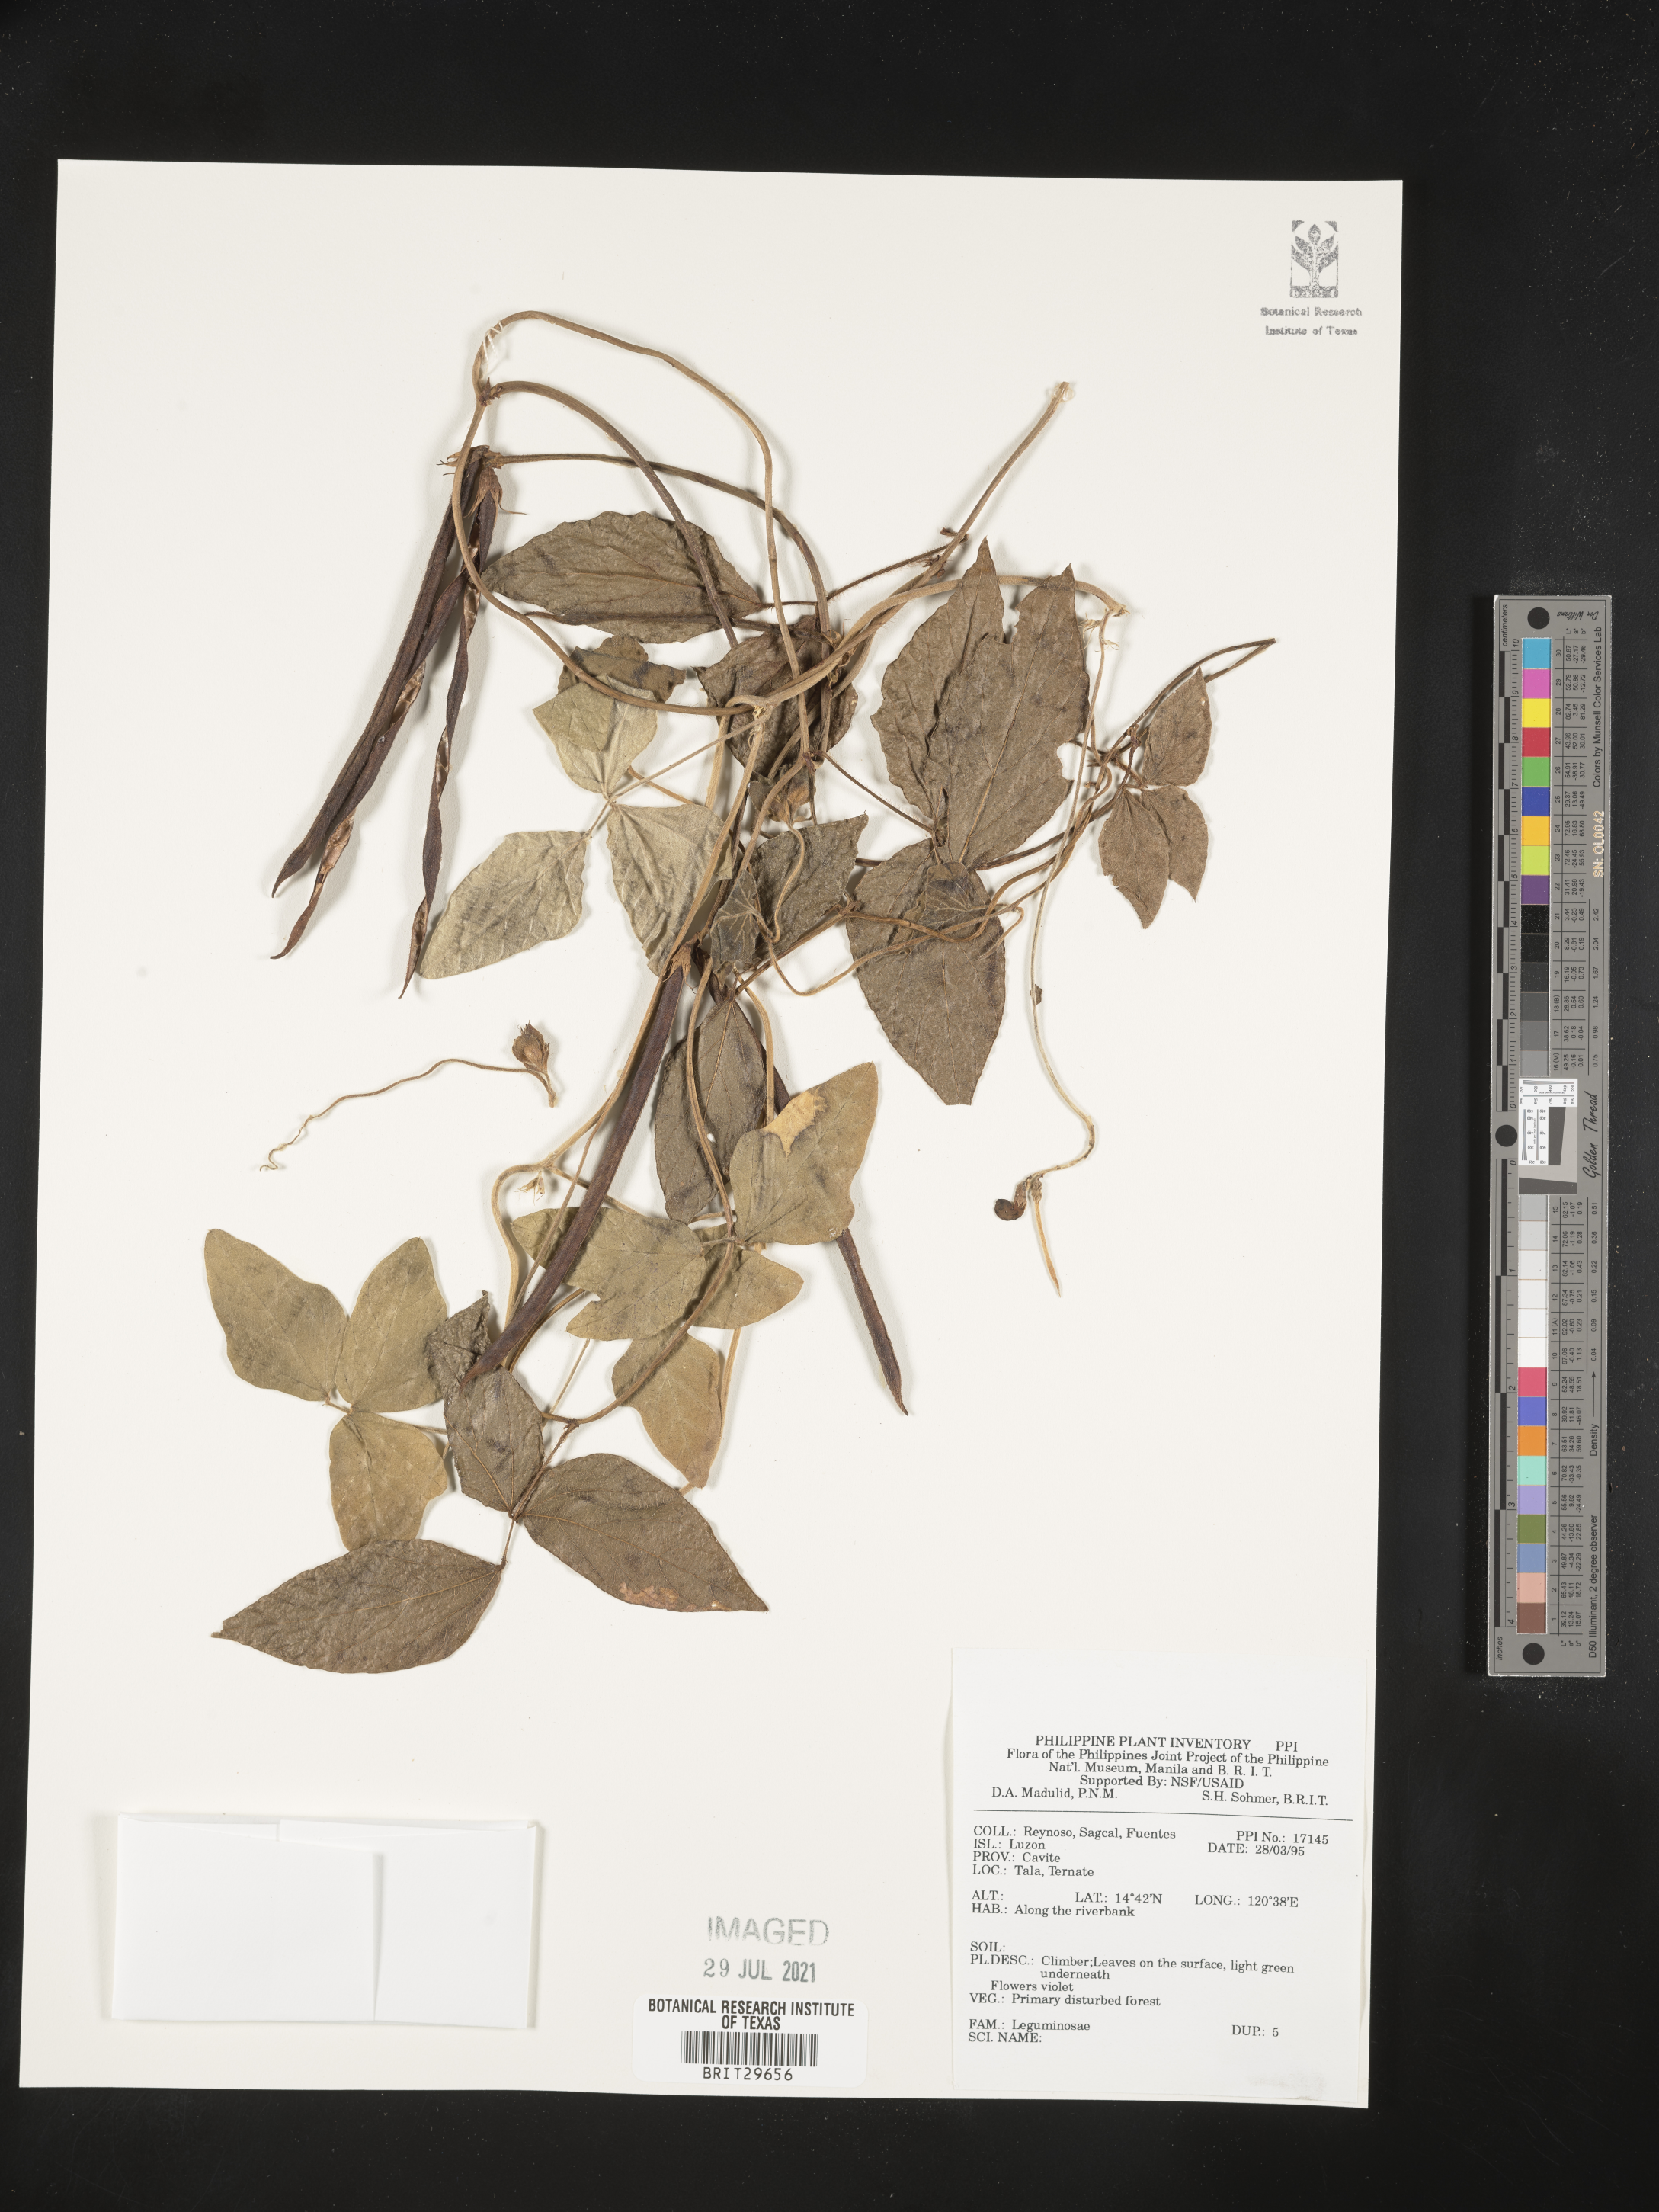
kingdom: Plantae
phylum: Tracheophyta
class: Magnoliopsida
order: Fabales
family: Fabaceae
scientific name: Fabaceae
